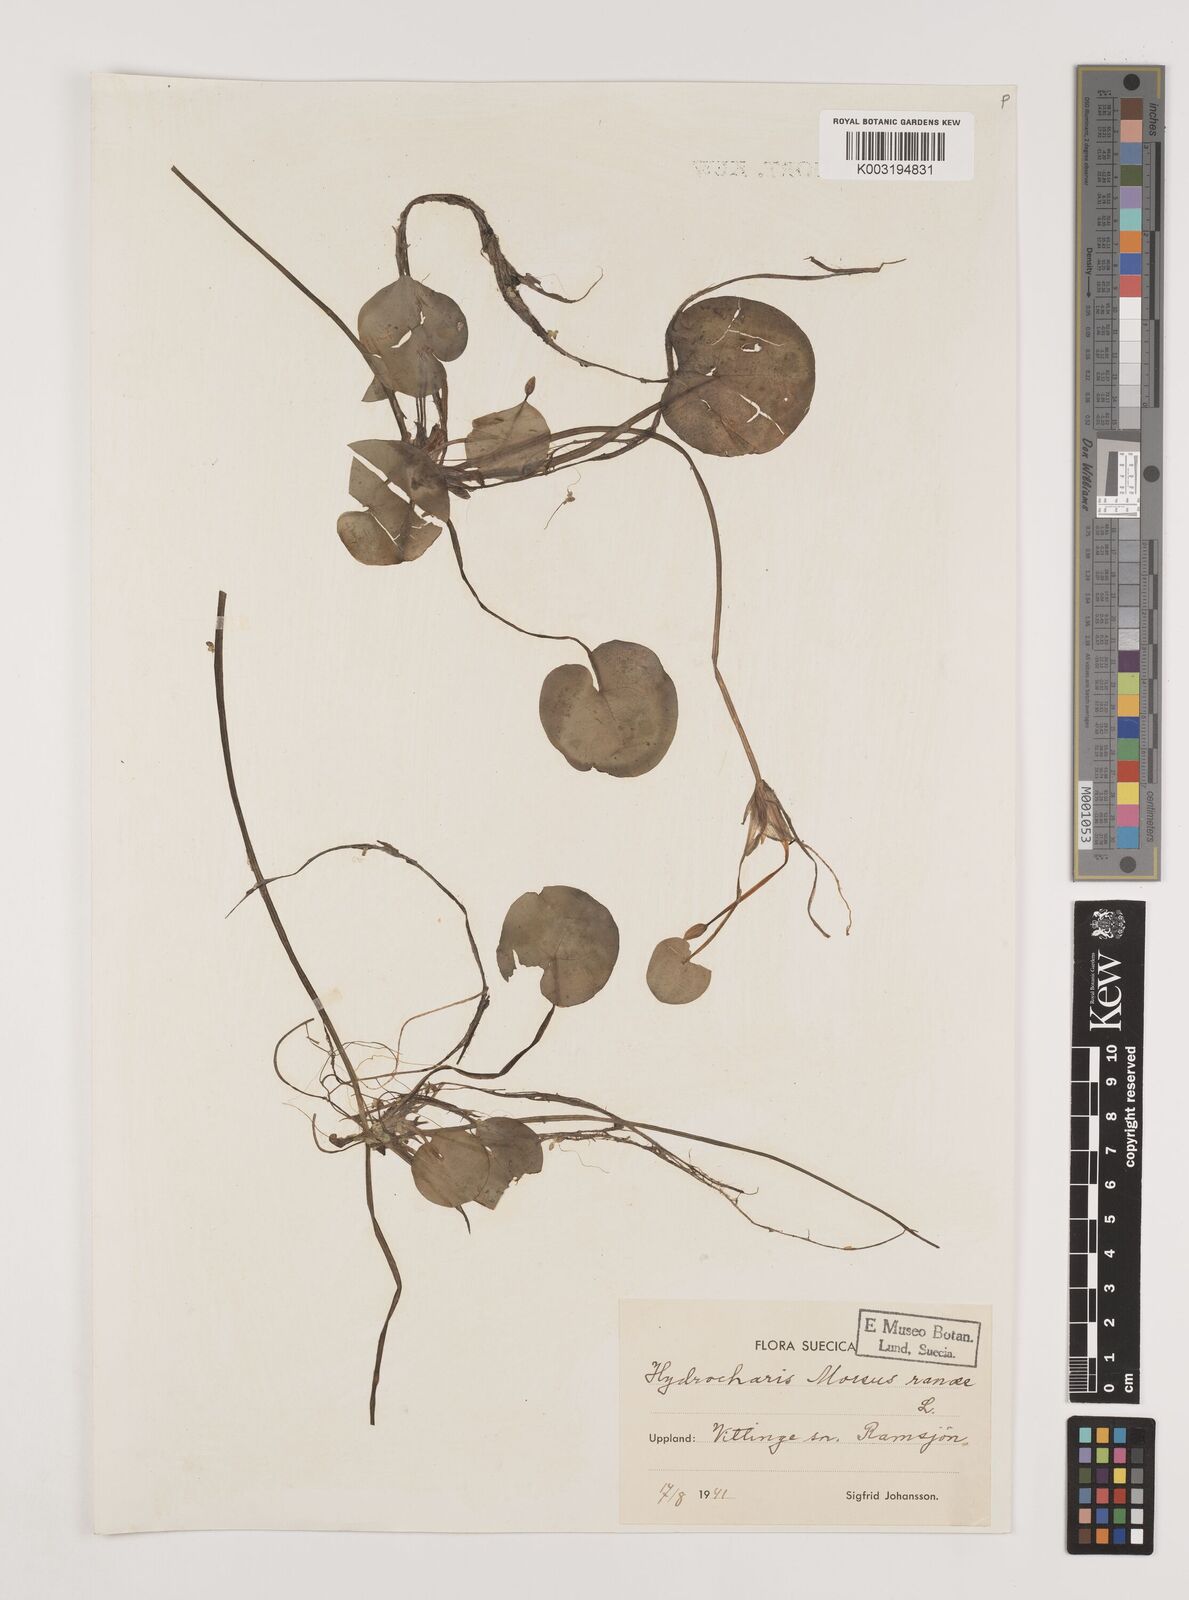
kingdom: Plantae
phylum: Tracheophyta
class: Liliopsida
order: Alismatales
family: Hydrocharitaceae
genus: Hydrocharis
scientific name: Hydrocharis morsus-ranae
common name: Frogbit
